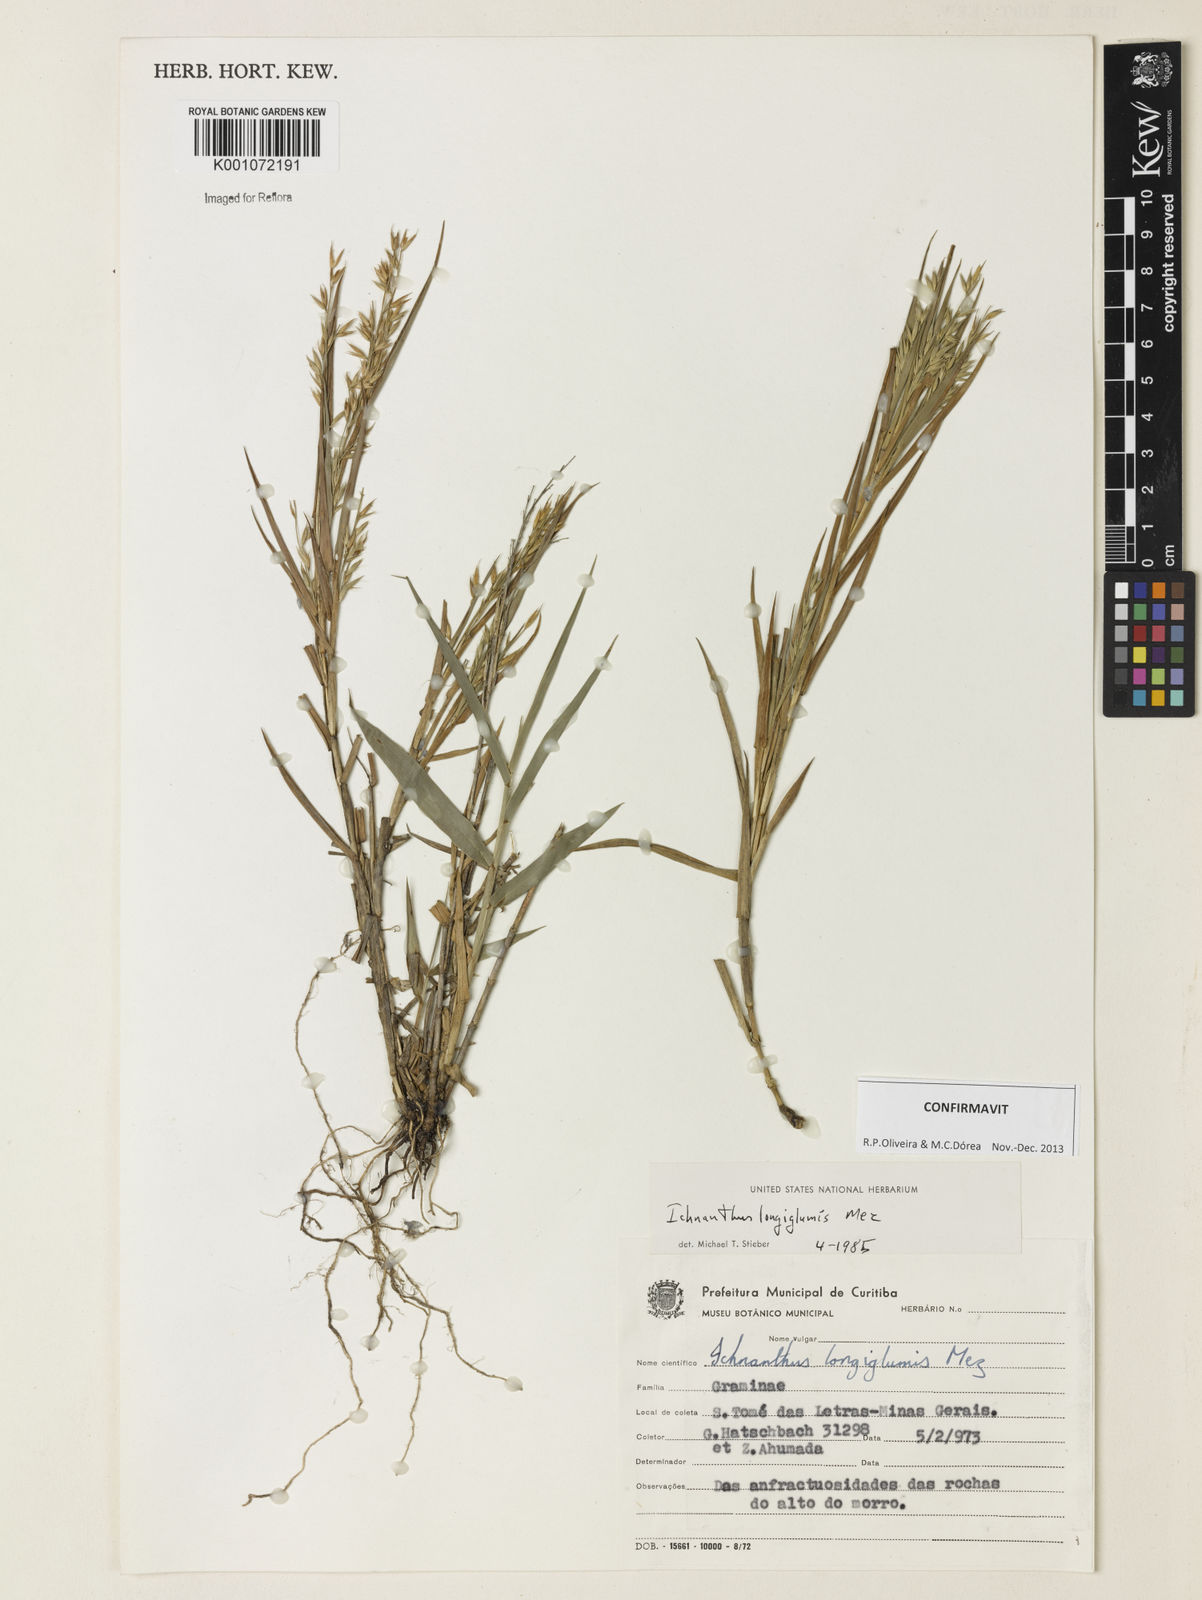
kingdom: Plantae
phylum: Tracheophyta
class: Liliopsida
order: Poales
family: Poaceae
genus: Ichnanthus
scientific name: Ichnanthus longiglumis
